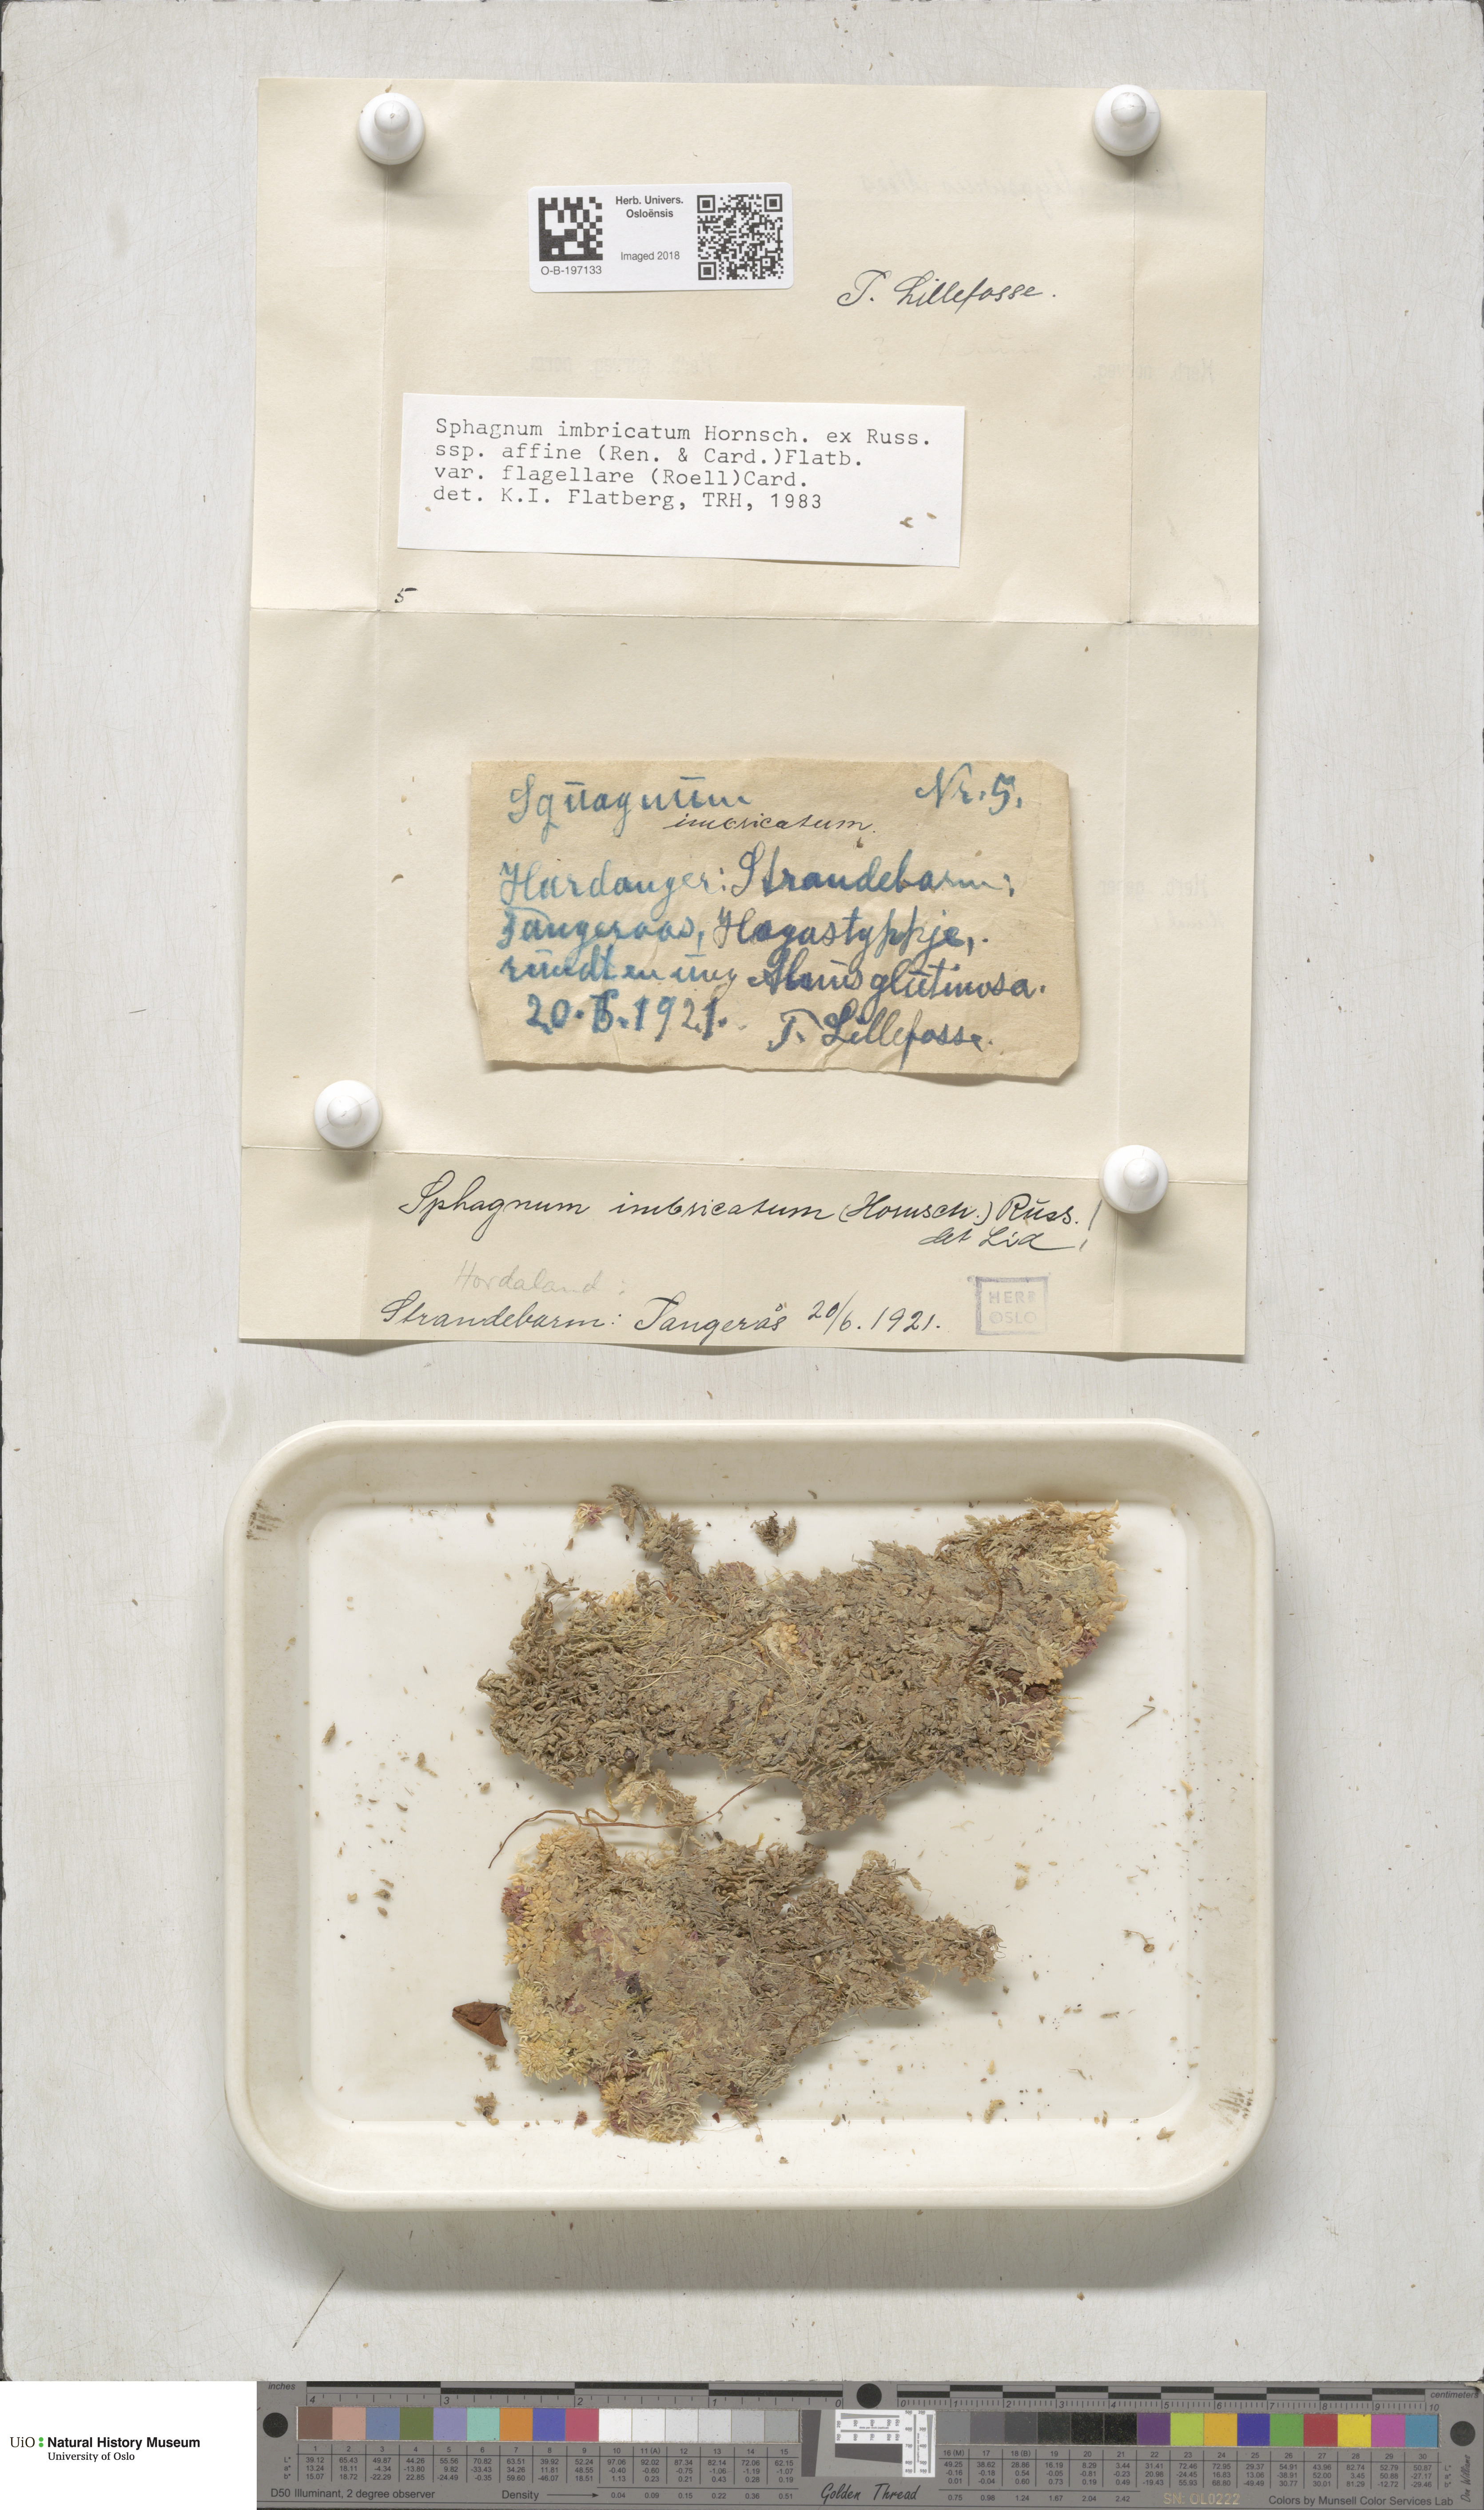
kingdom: Plantae
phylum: Bryophyta
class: Sphagnopsida
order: Sphagnales
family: Sphagnaceae
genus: Sphagnum
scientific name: Sphagnum affine
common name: Imbricate peat moss
